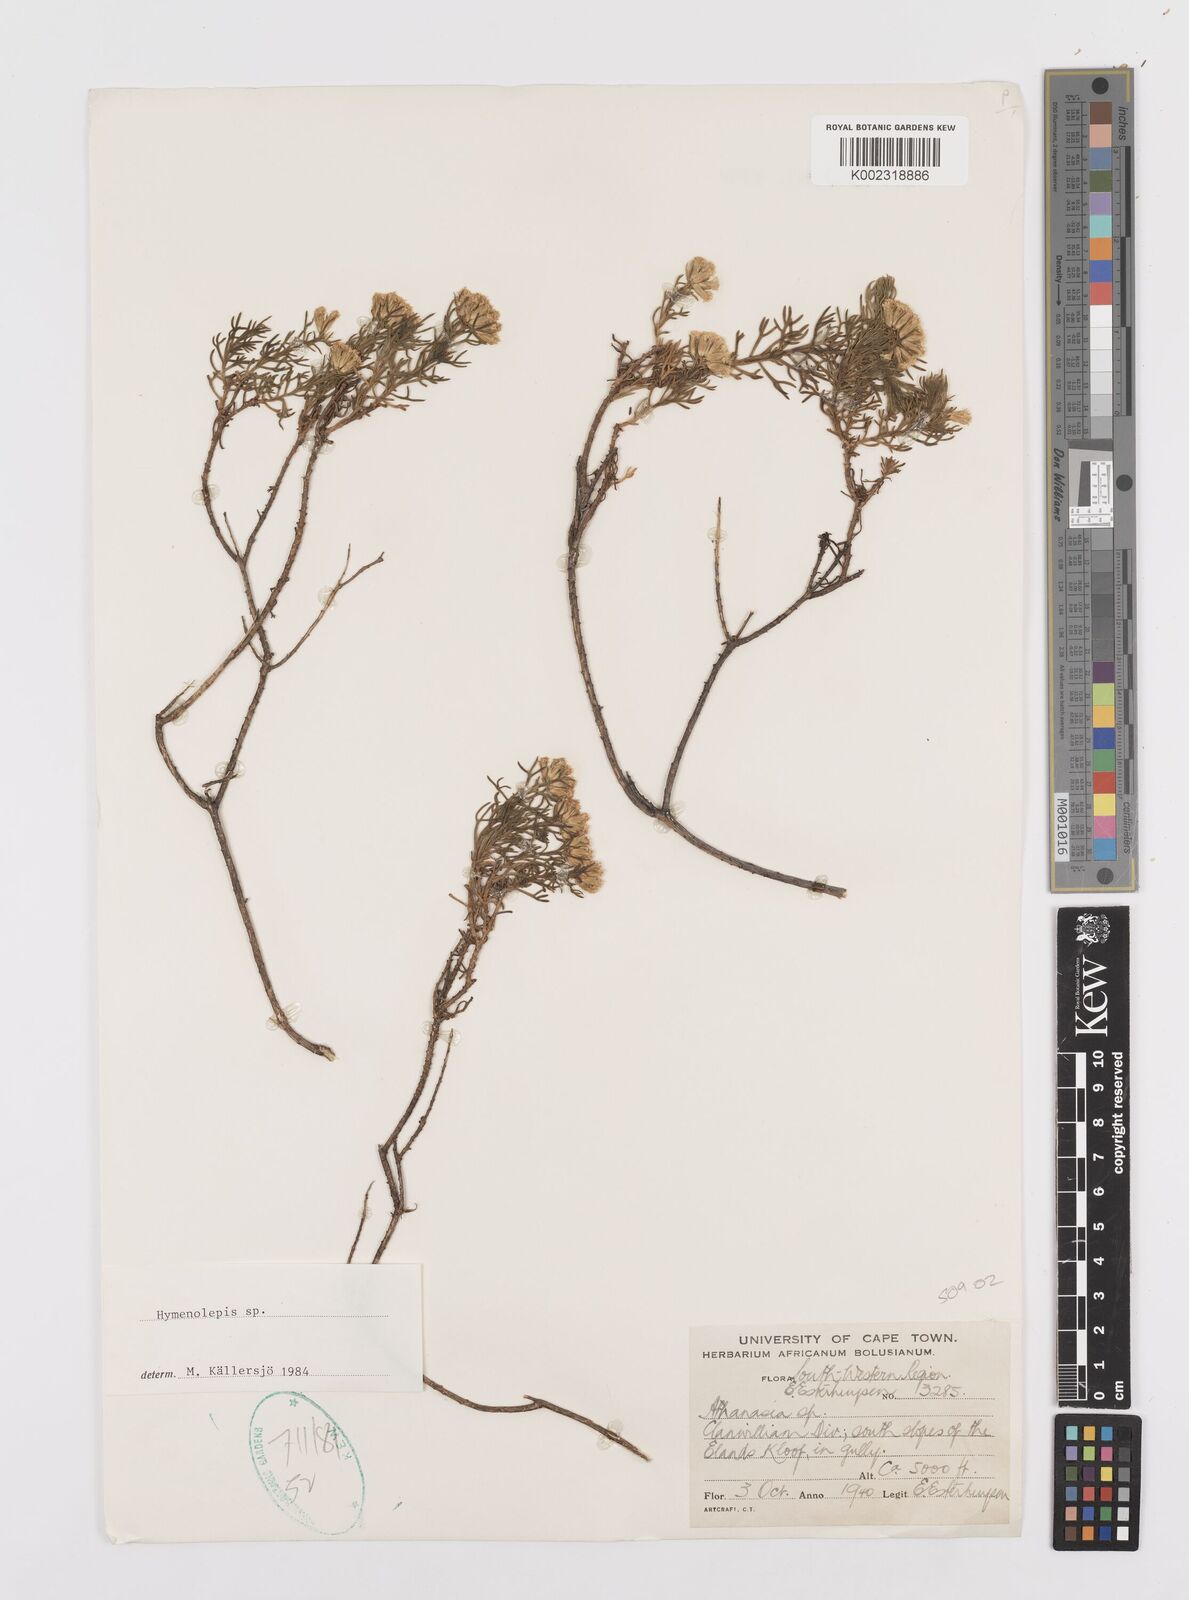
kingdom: Plantae
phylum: Tracheophyta
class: Magnoliopsida
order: Asterales
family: Asteraceae
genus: Hymenolepis
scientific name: Hymenolepis
